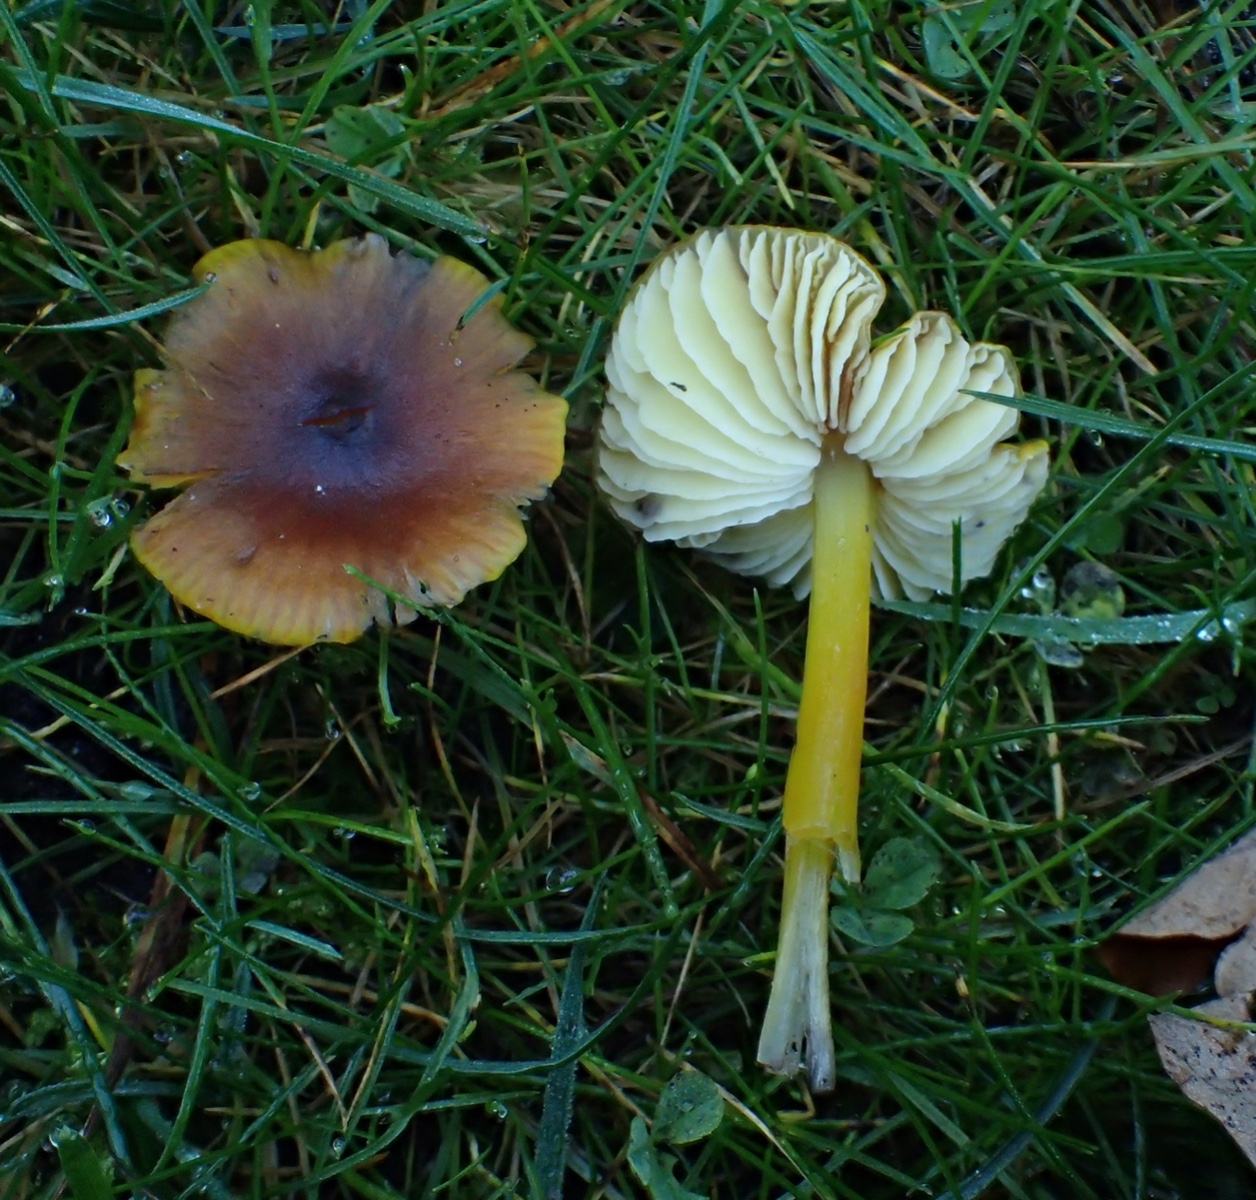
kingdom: Fungi
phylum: Basidiomycota
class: Agaricomycetes
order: Agaricales
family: Hygrophoraceae
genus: Hygrocybe
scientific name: Hygrocybe conica
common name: kegle-vokshat
